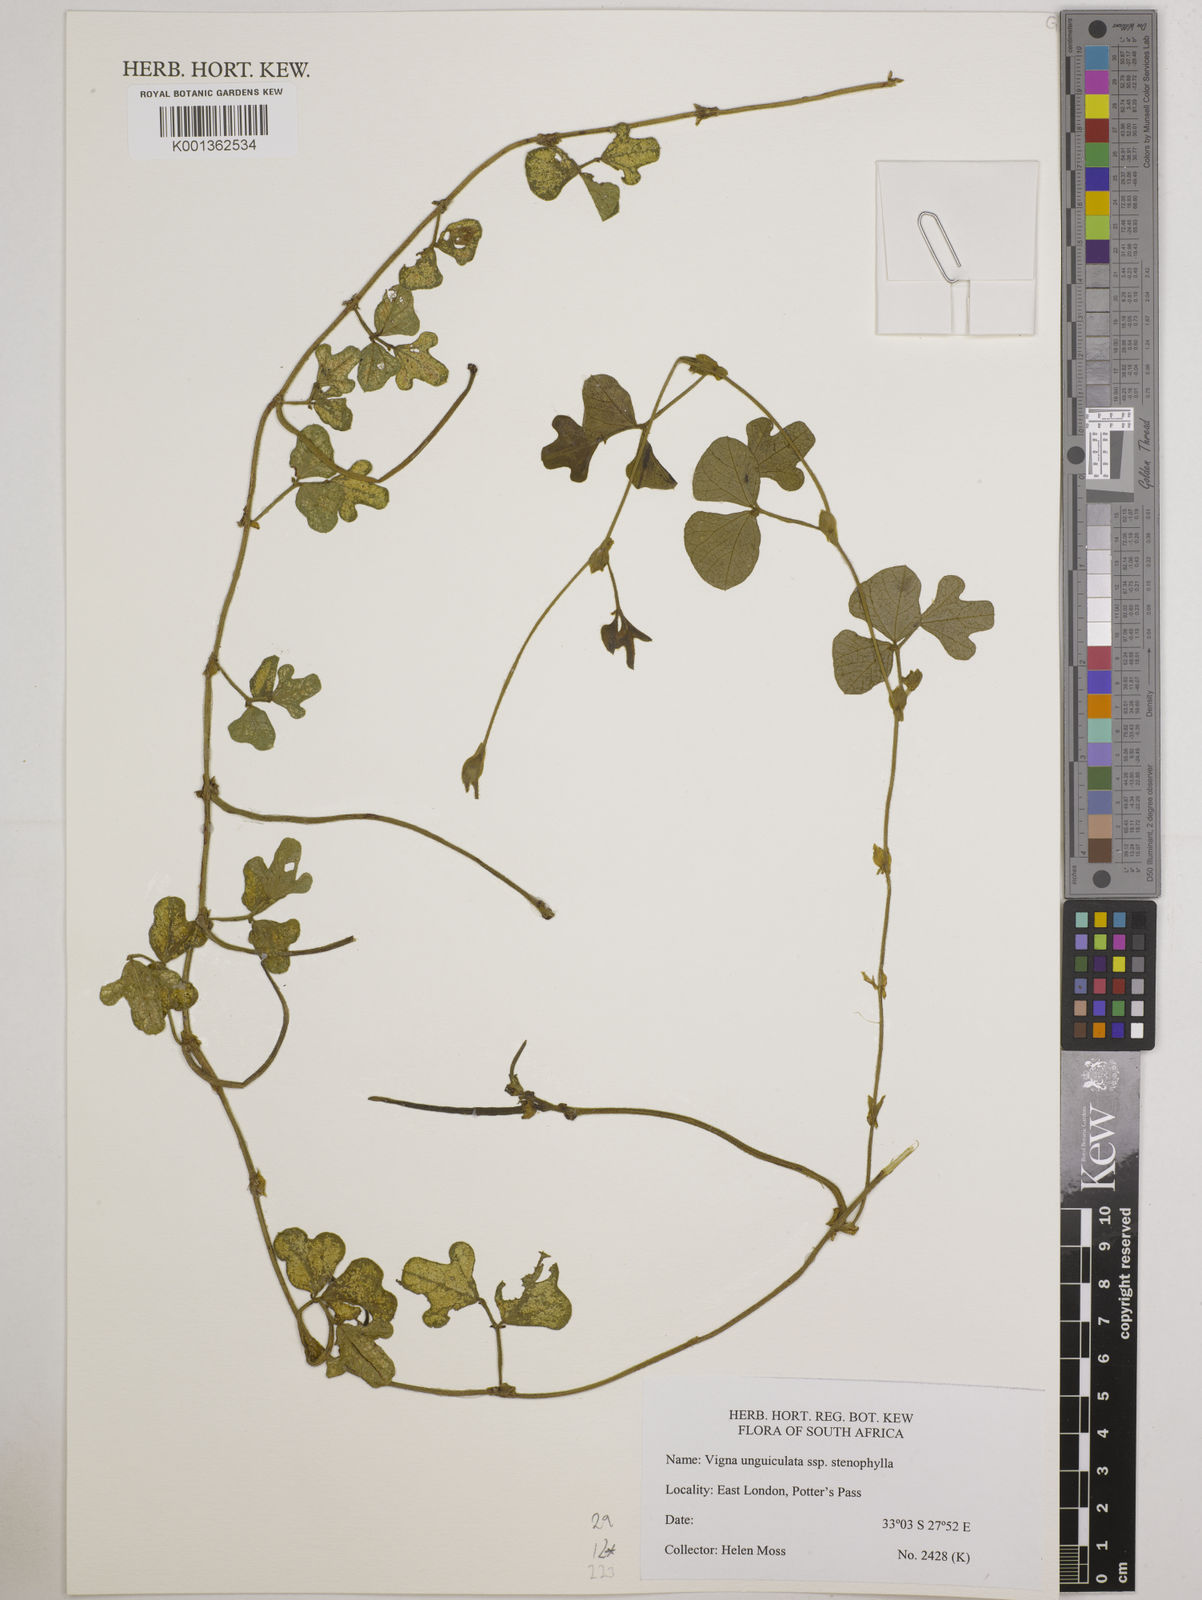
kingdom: Plantae
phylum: Tracheophyta
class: Magnoliopsida
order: Fabales
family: Fabaceae
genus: Vigna
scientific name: Vigna
